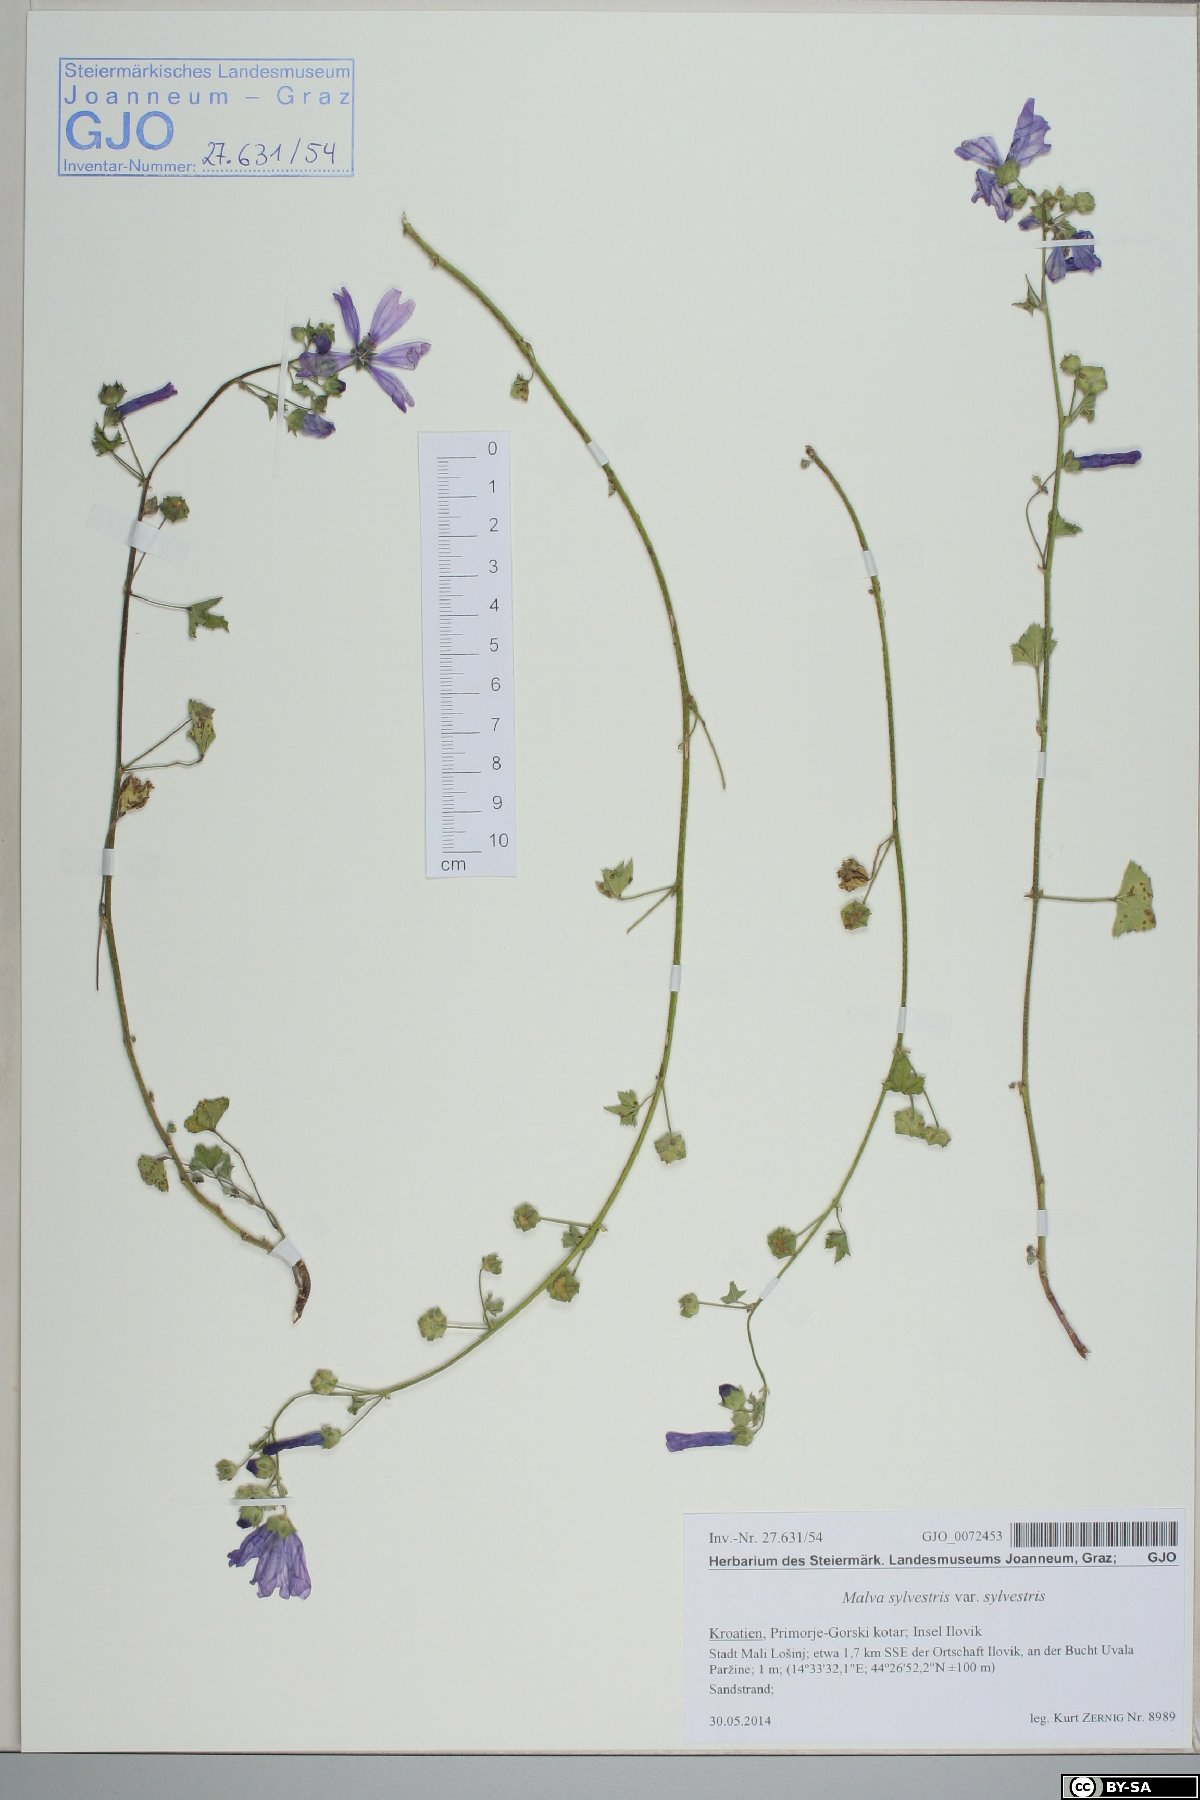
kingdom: Plantae
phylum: Tracheophyta
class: Magnoliopsida
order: Malvales
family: Malvaceae
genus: Malva
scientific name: Malva sylvestris
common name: Common mallow
